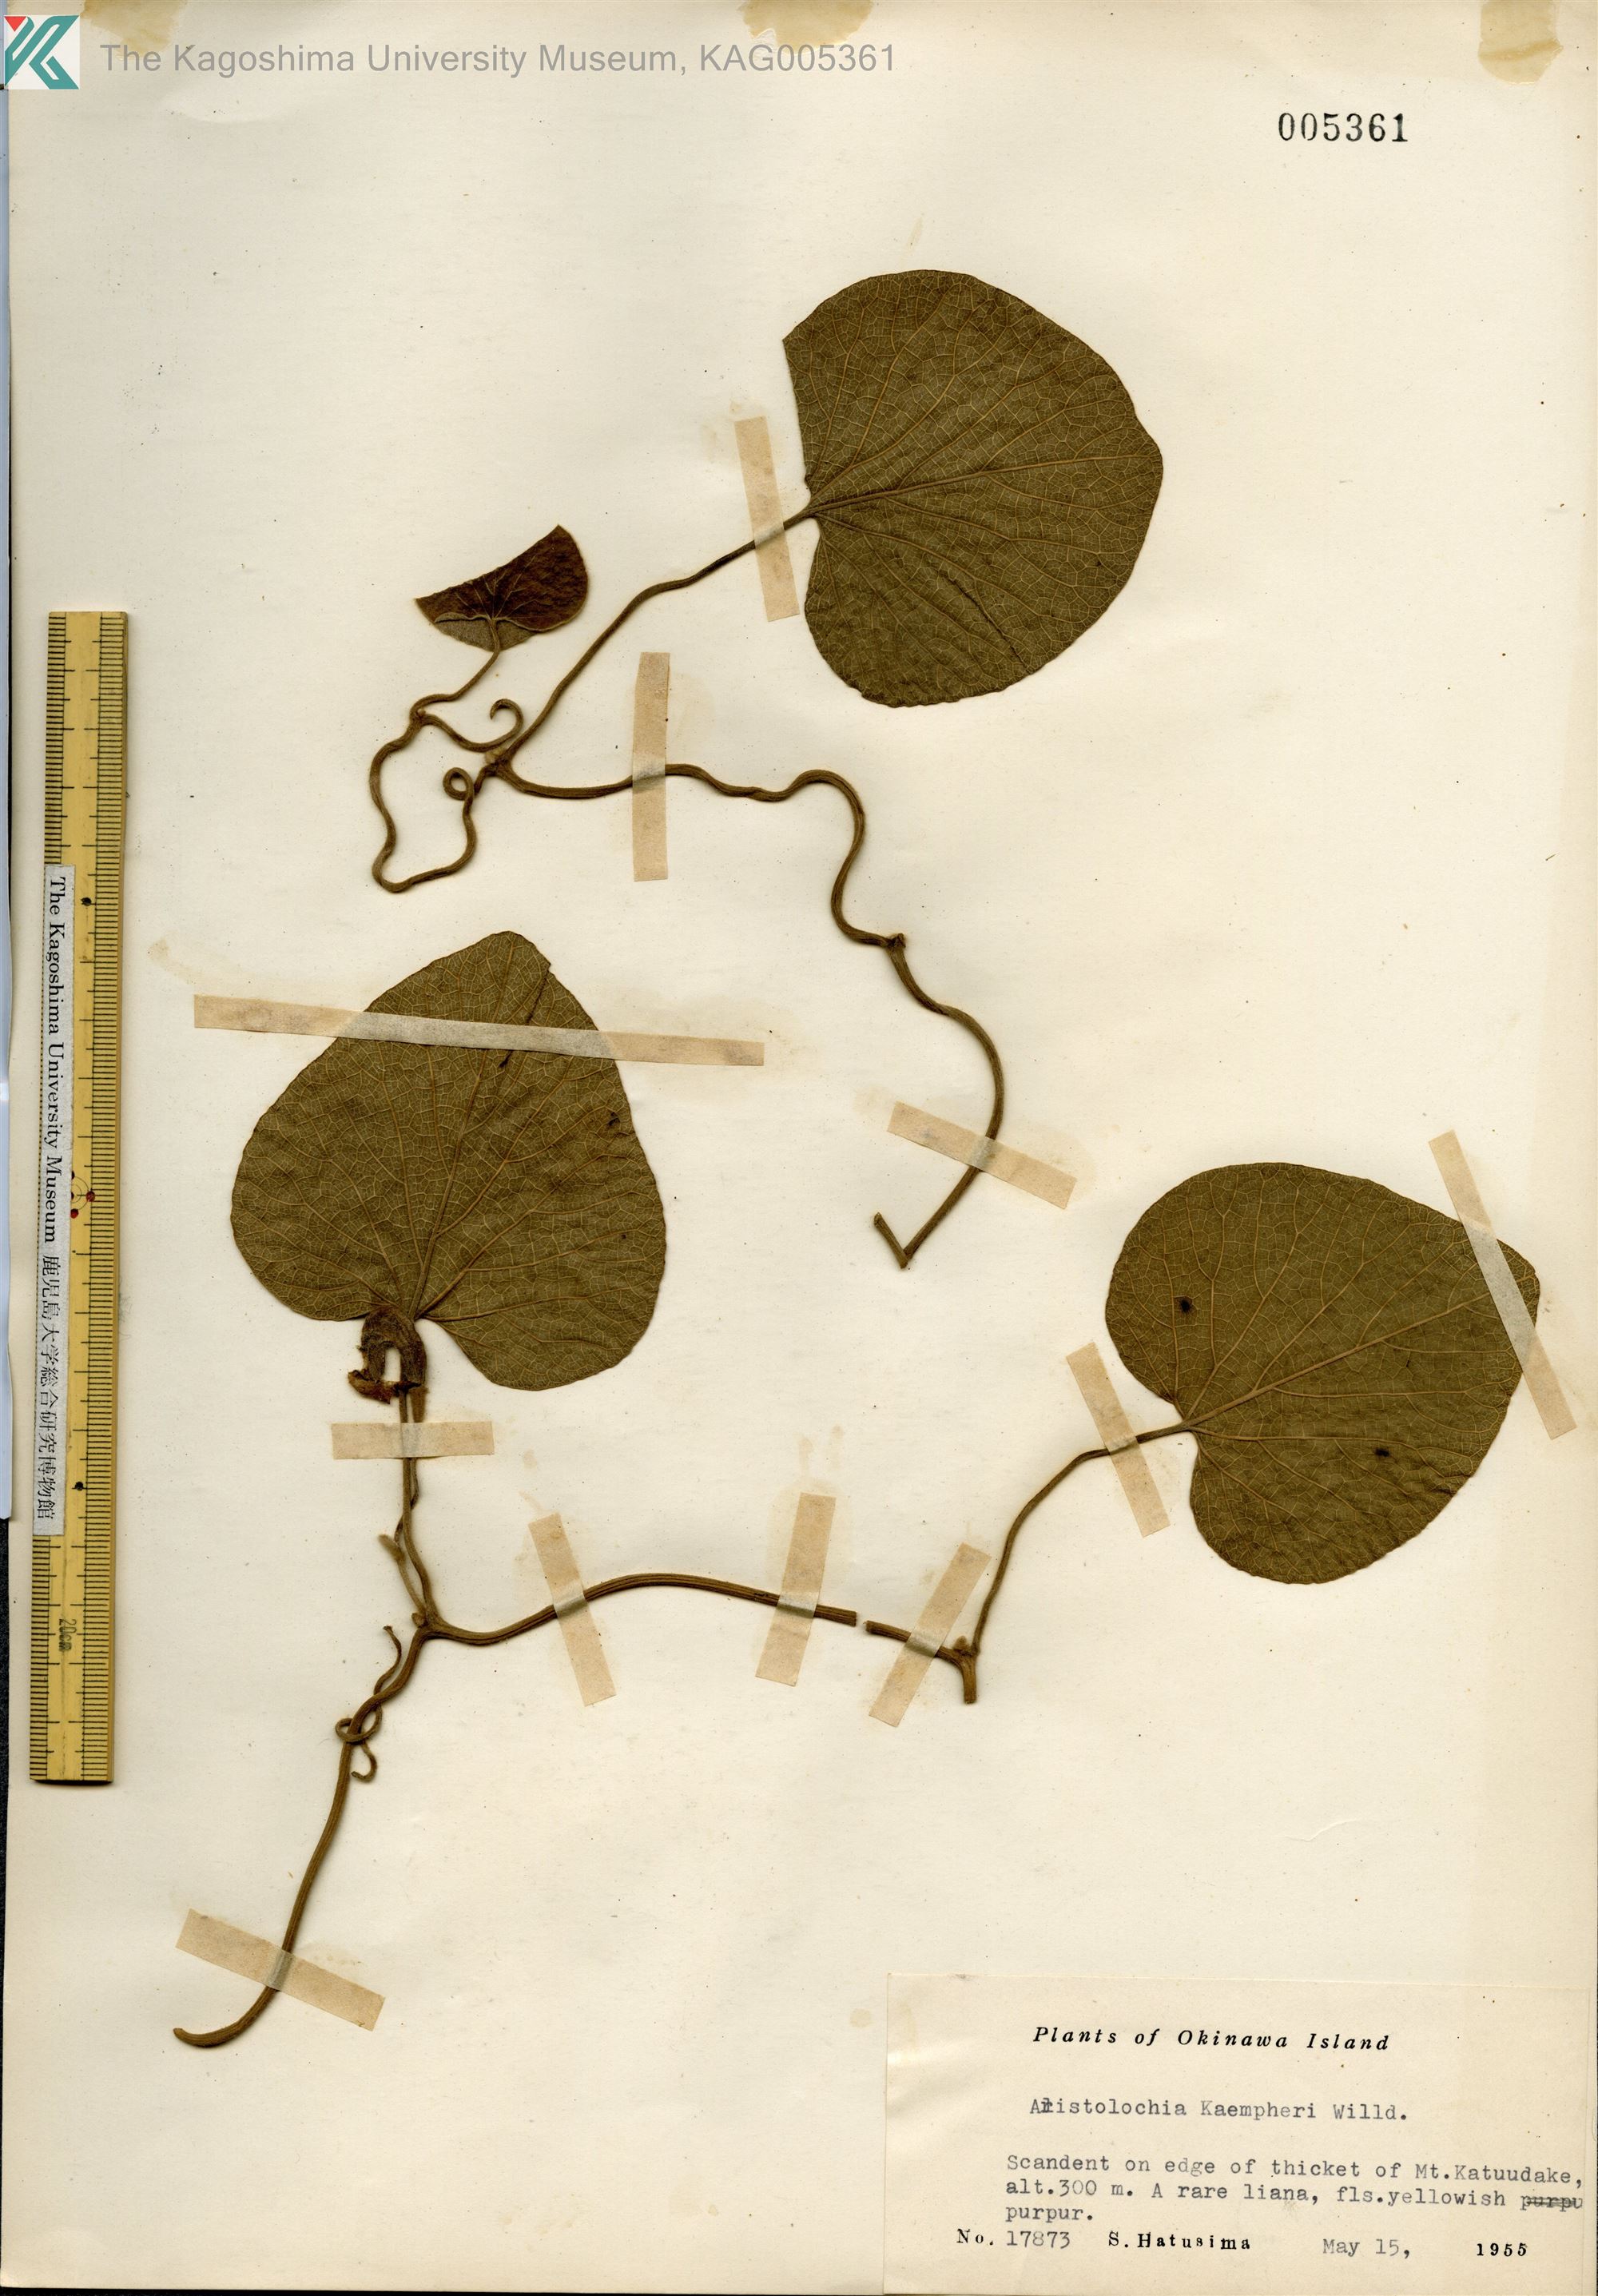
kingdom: Plantae
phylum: Tracheophyta
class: Magnoliopsida
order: Piperales
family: Aristolochiaceae
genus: Isotrema
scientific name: Isotrema liukiuense
